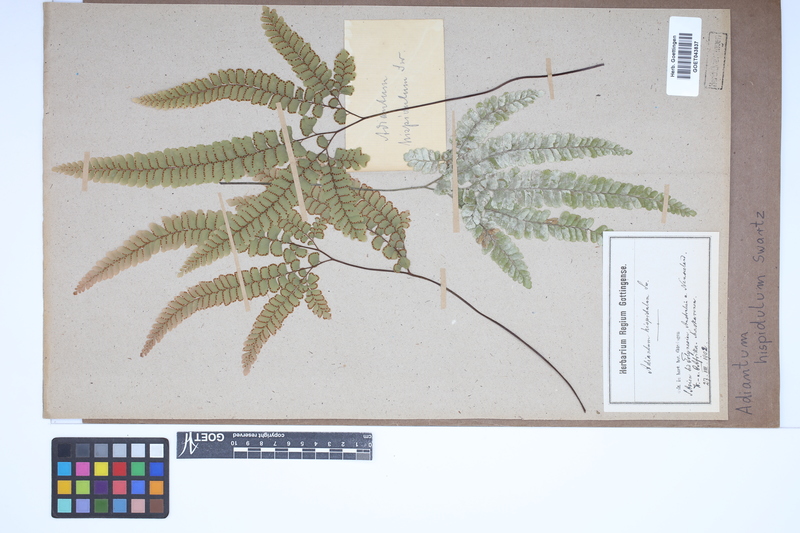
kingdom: Plantae
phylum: Tracheophyta
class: Polypodiopsida
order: Polypodiales
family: Pteridaceae
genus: Adiantum
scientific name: Adiantum hispidulum
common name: Rough maidenhair
